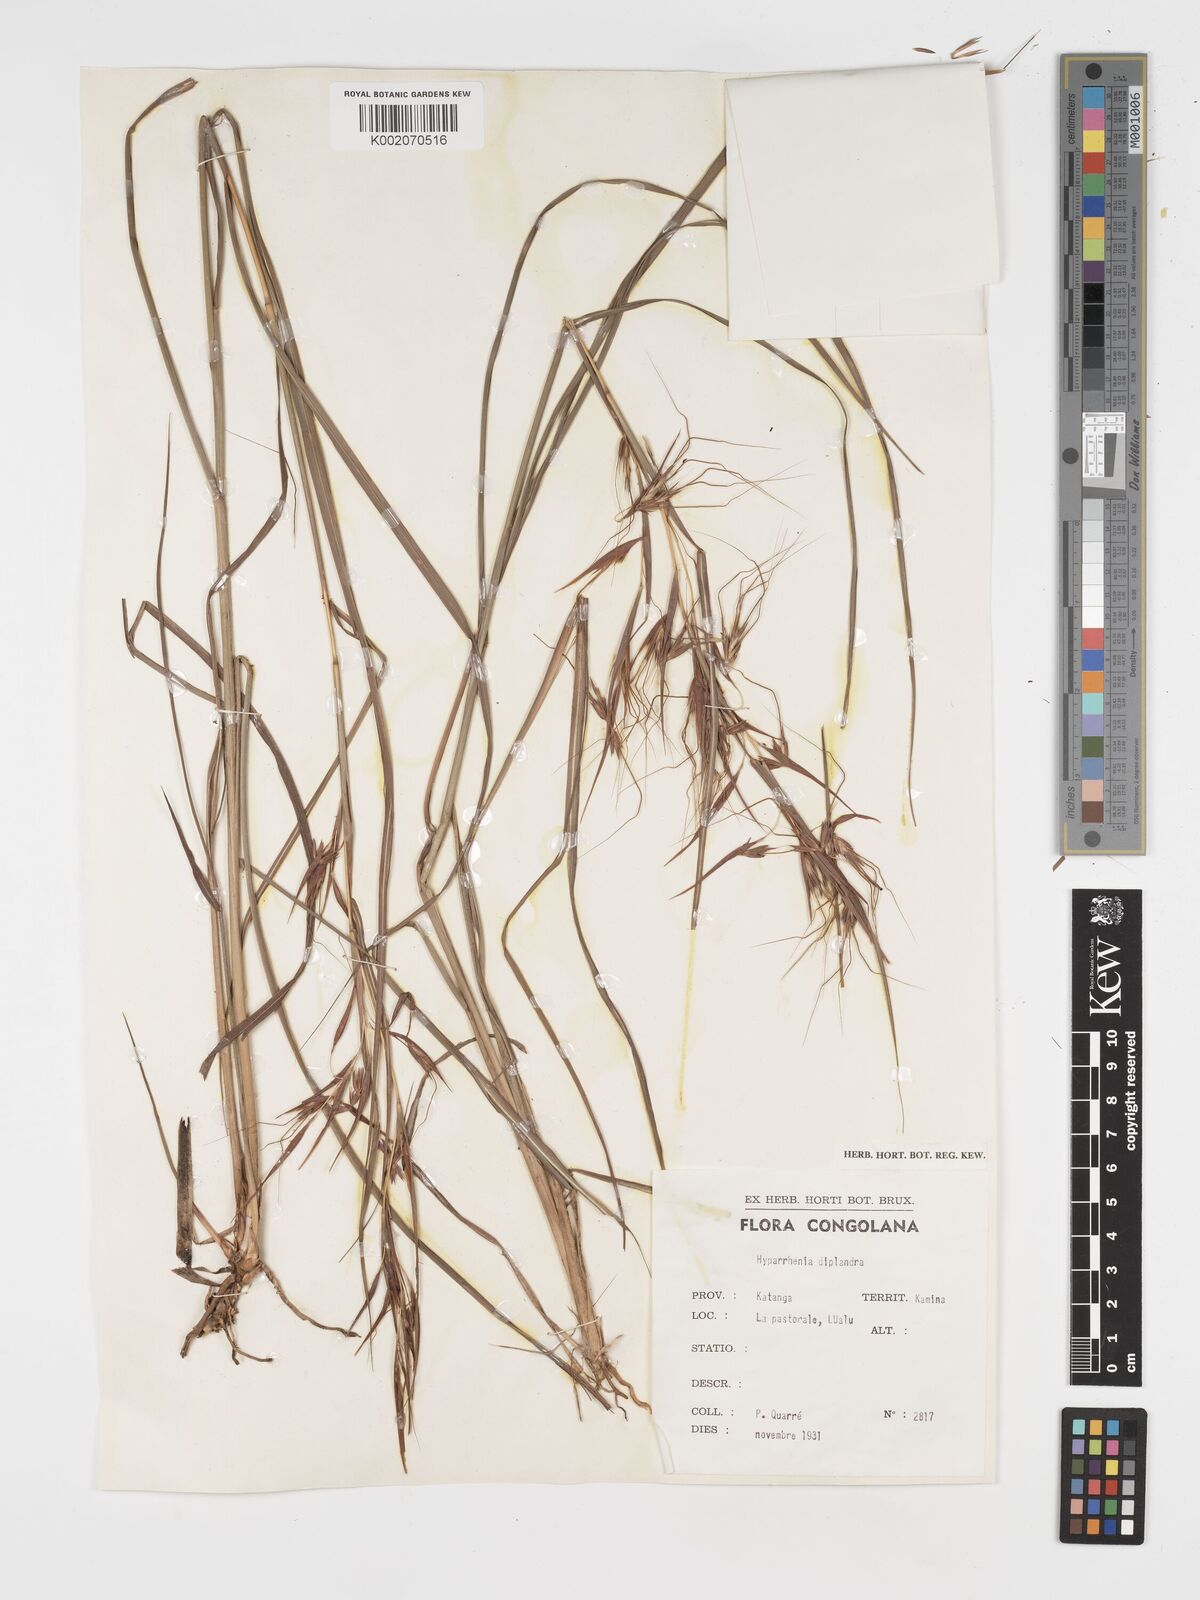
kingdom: Plantae
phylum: Tracheophyta
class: Liliopsida
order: Poales
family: Poaceae
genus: Hyparrhenia
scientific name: Hyparrhenia diplandra
